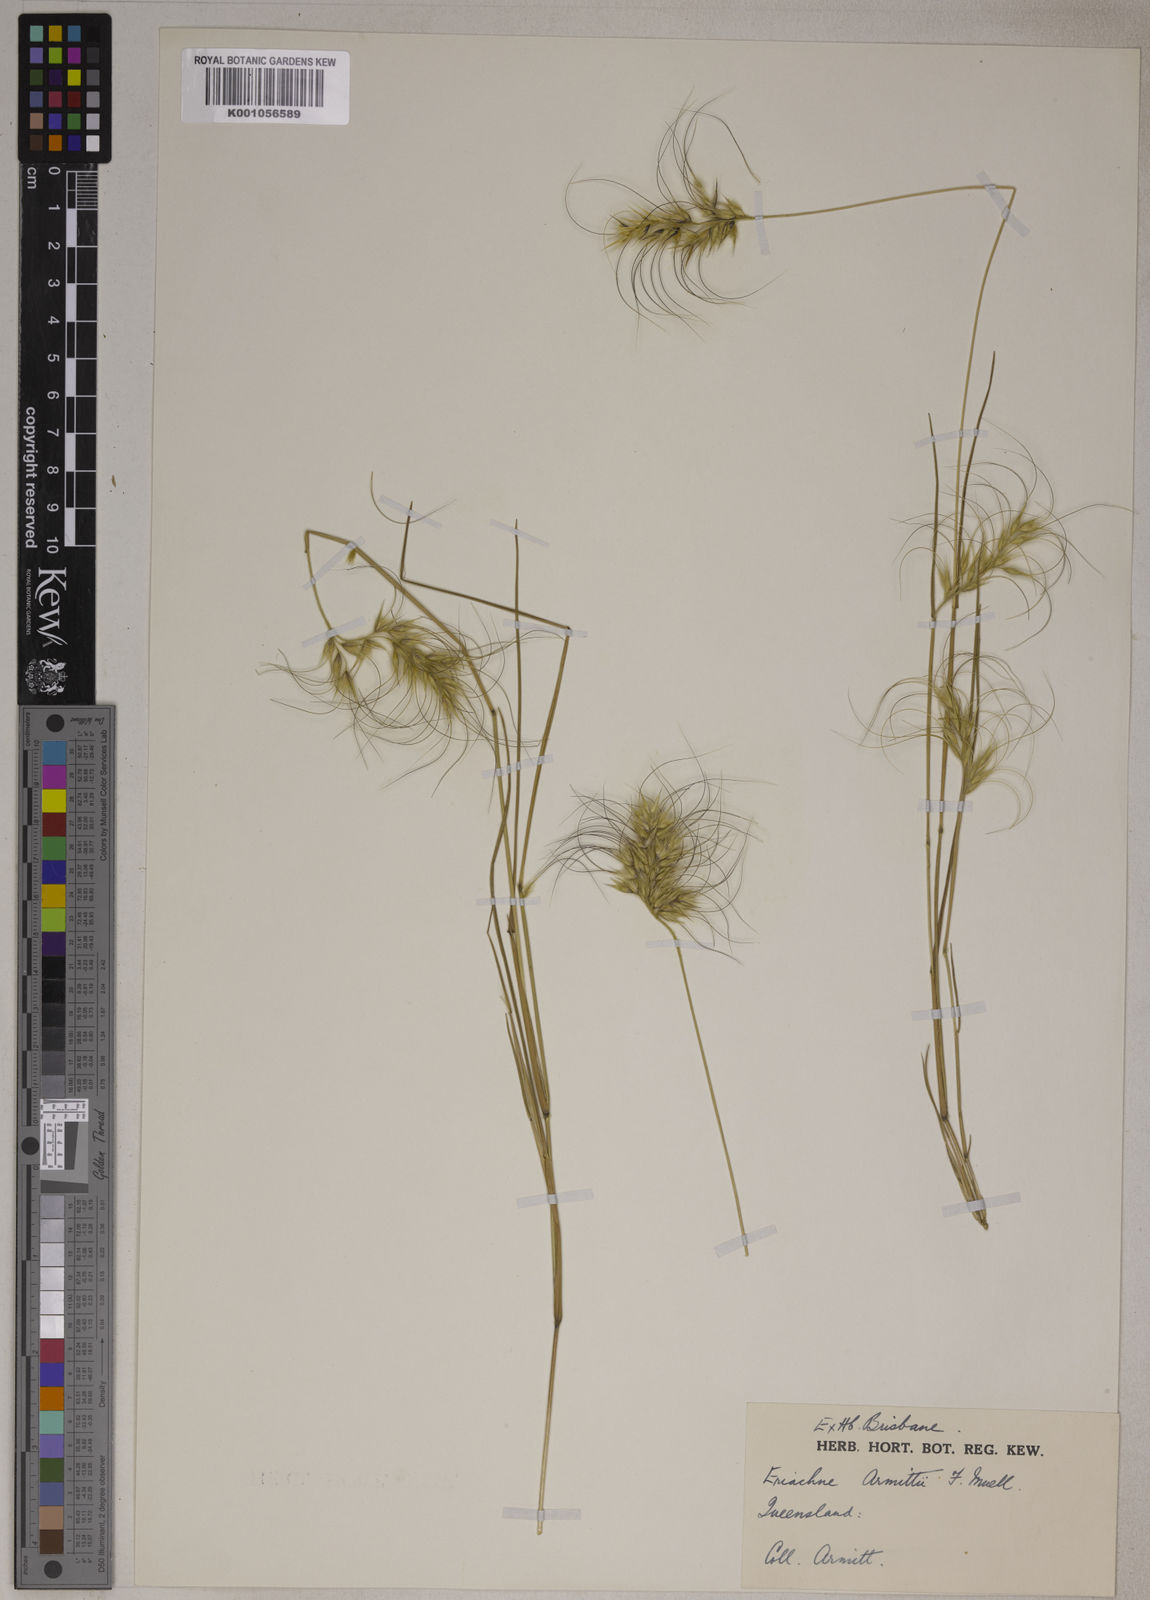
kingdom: Plantae
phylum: Tracheophyta
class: Liliopsida
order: Poales
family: Poaceae
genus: Eriachne
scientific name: Eriachne armitii
